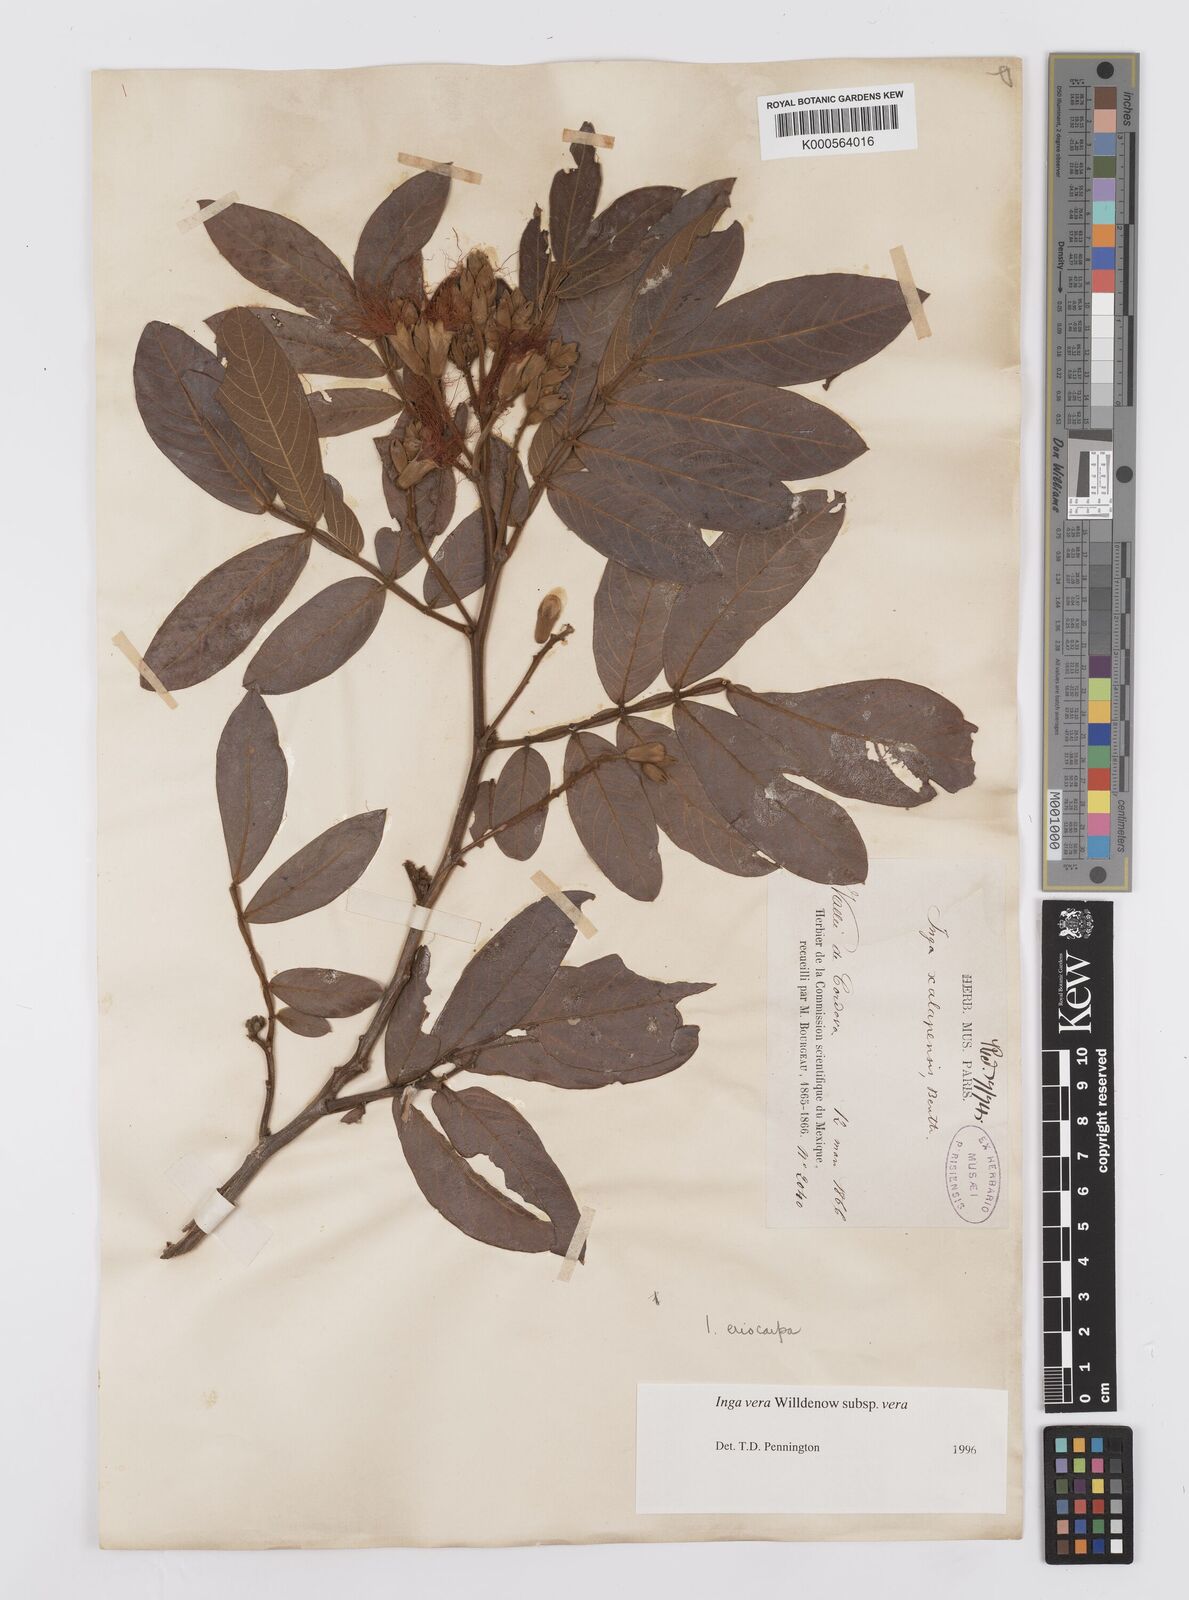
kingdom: Plantae
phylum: Tracheophyta
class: Magnoliopsida
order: Fabales
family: Fabaceae
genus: Inga
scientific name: Inga vera
